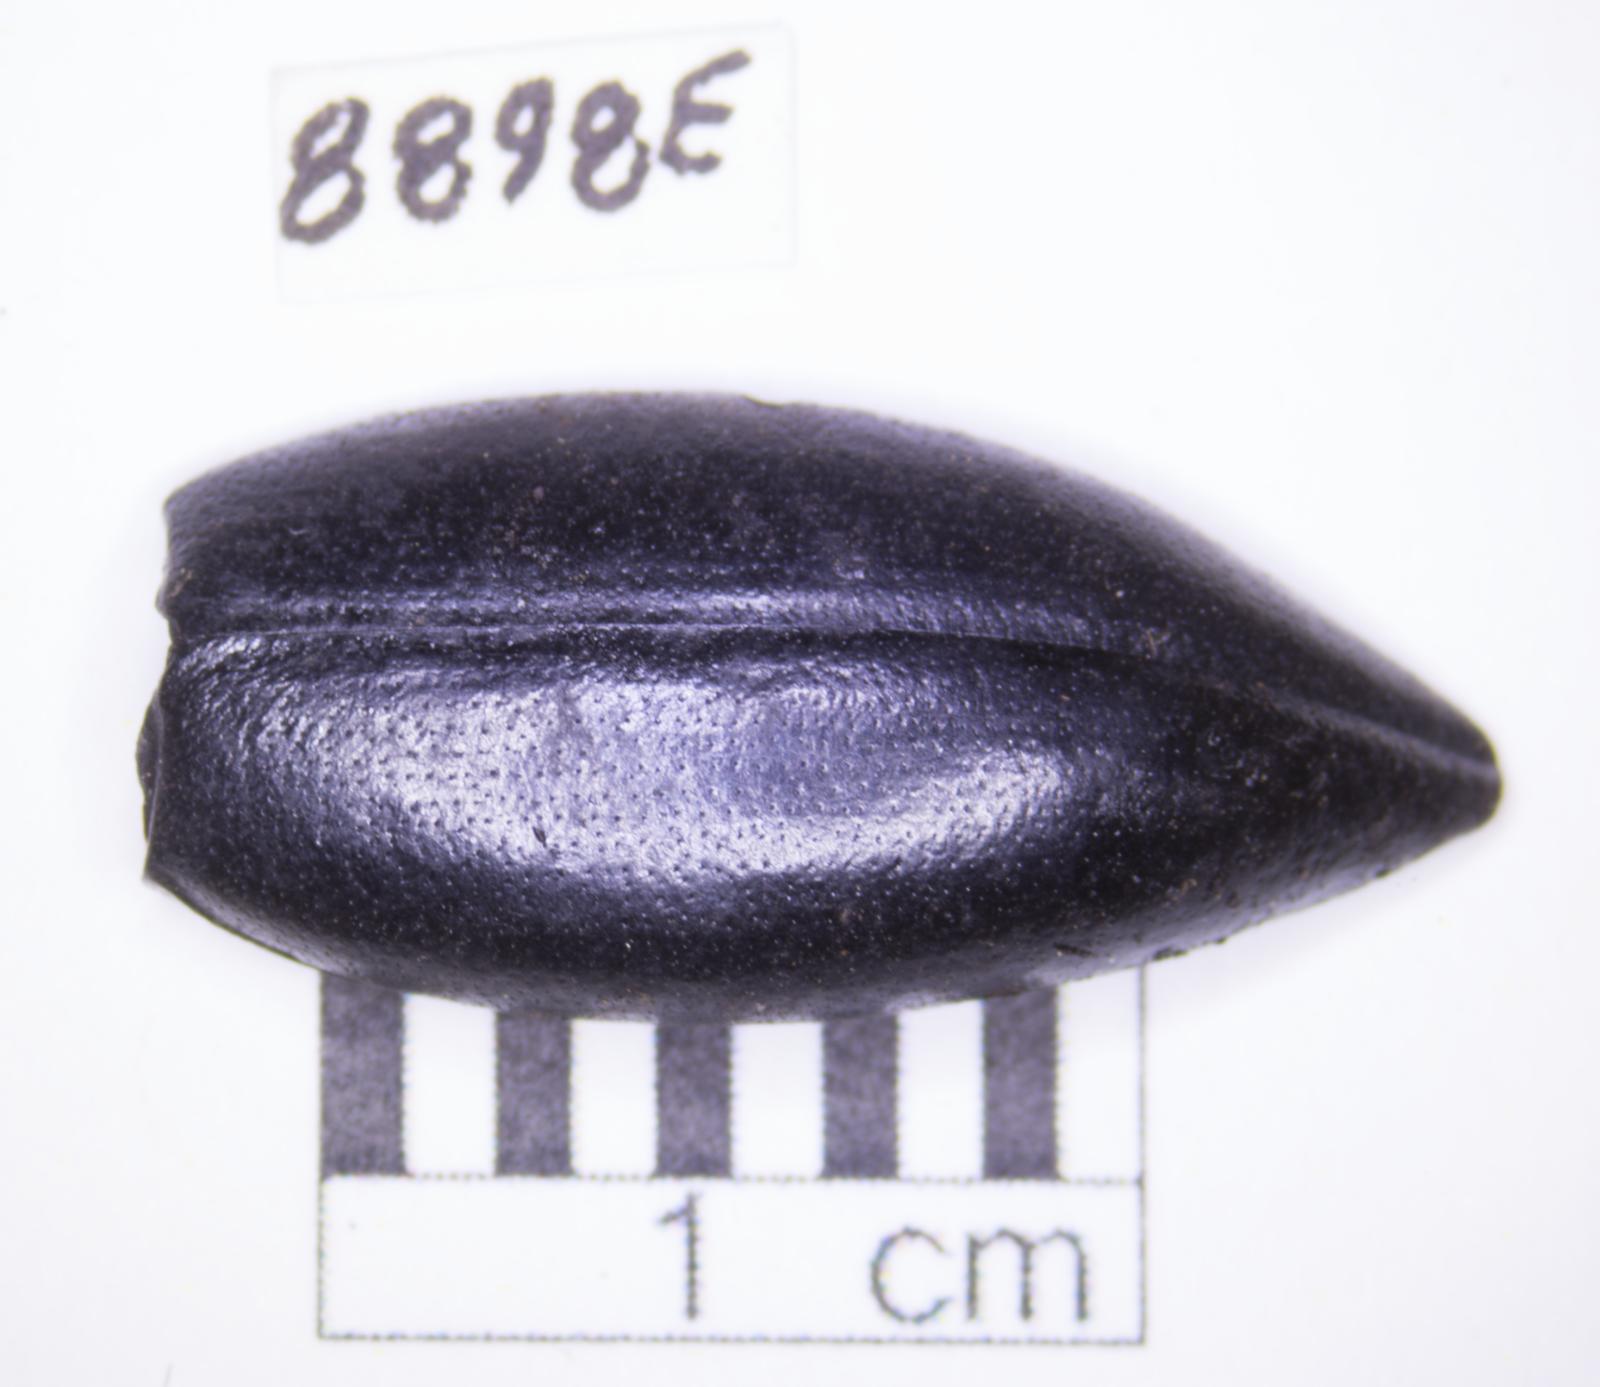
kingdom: Animalia
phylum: Arthropoda
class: Insecta
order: Coleoptera
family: Tenebrionidae
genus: Eleodes
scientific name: Eleodes acuticauda
